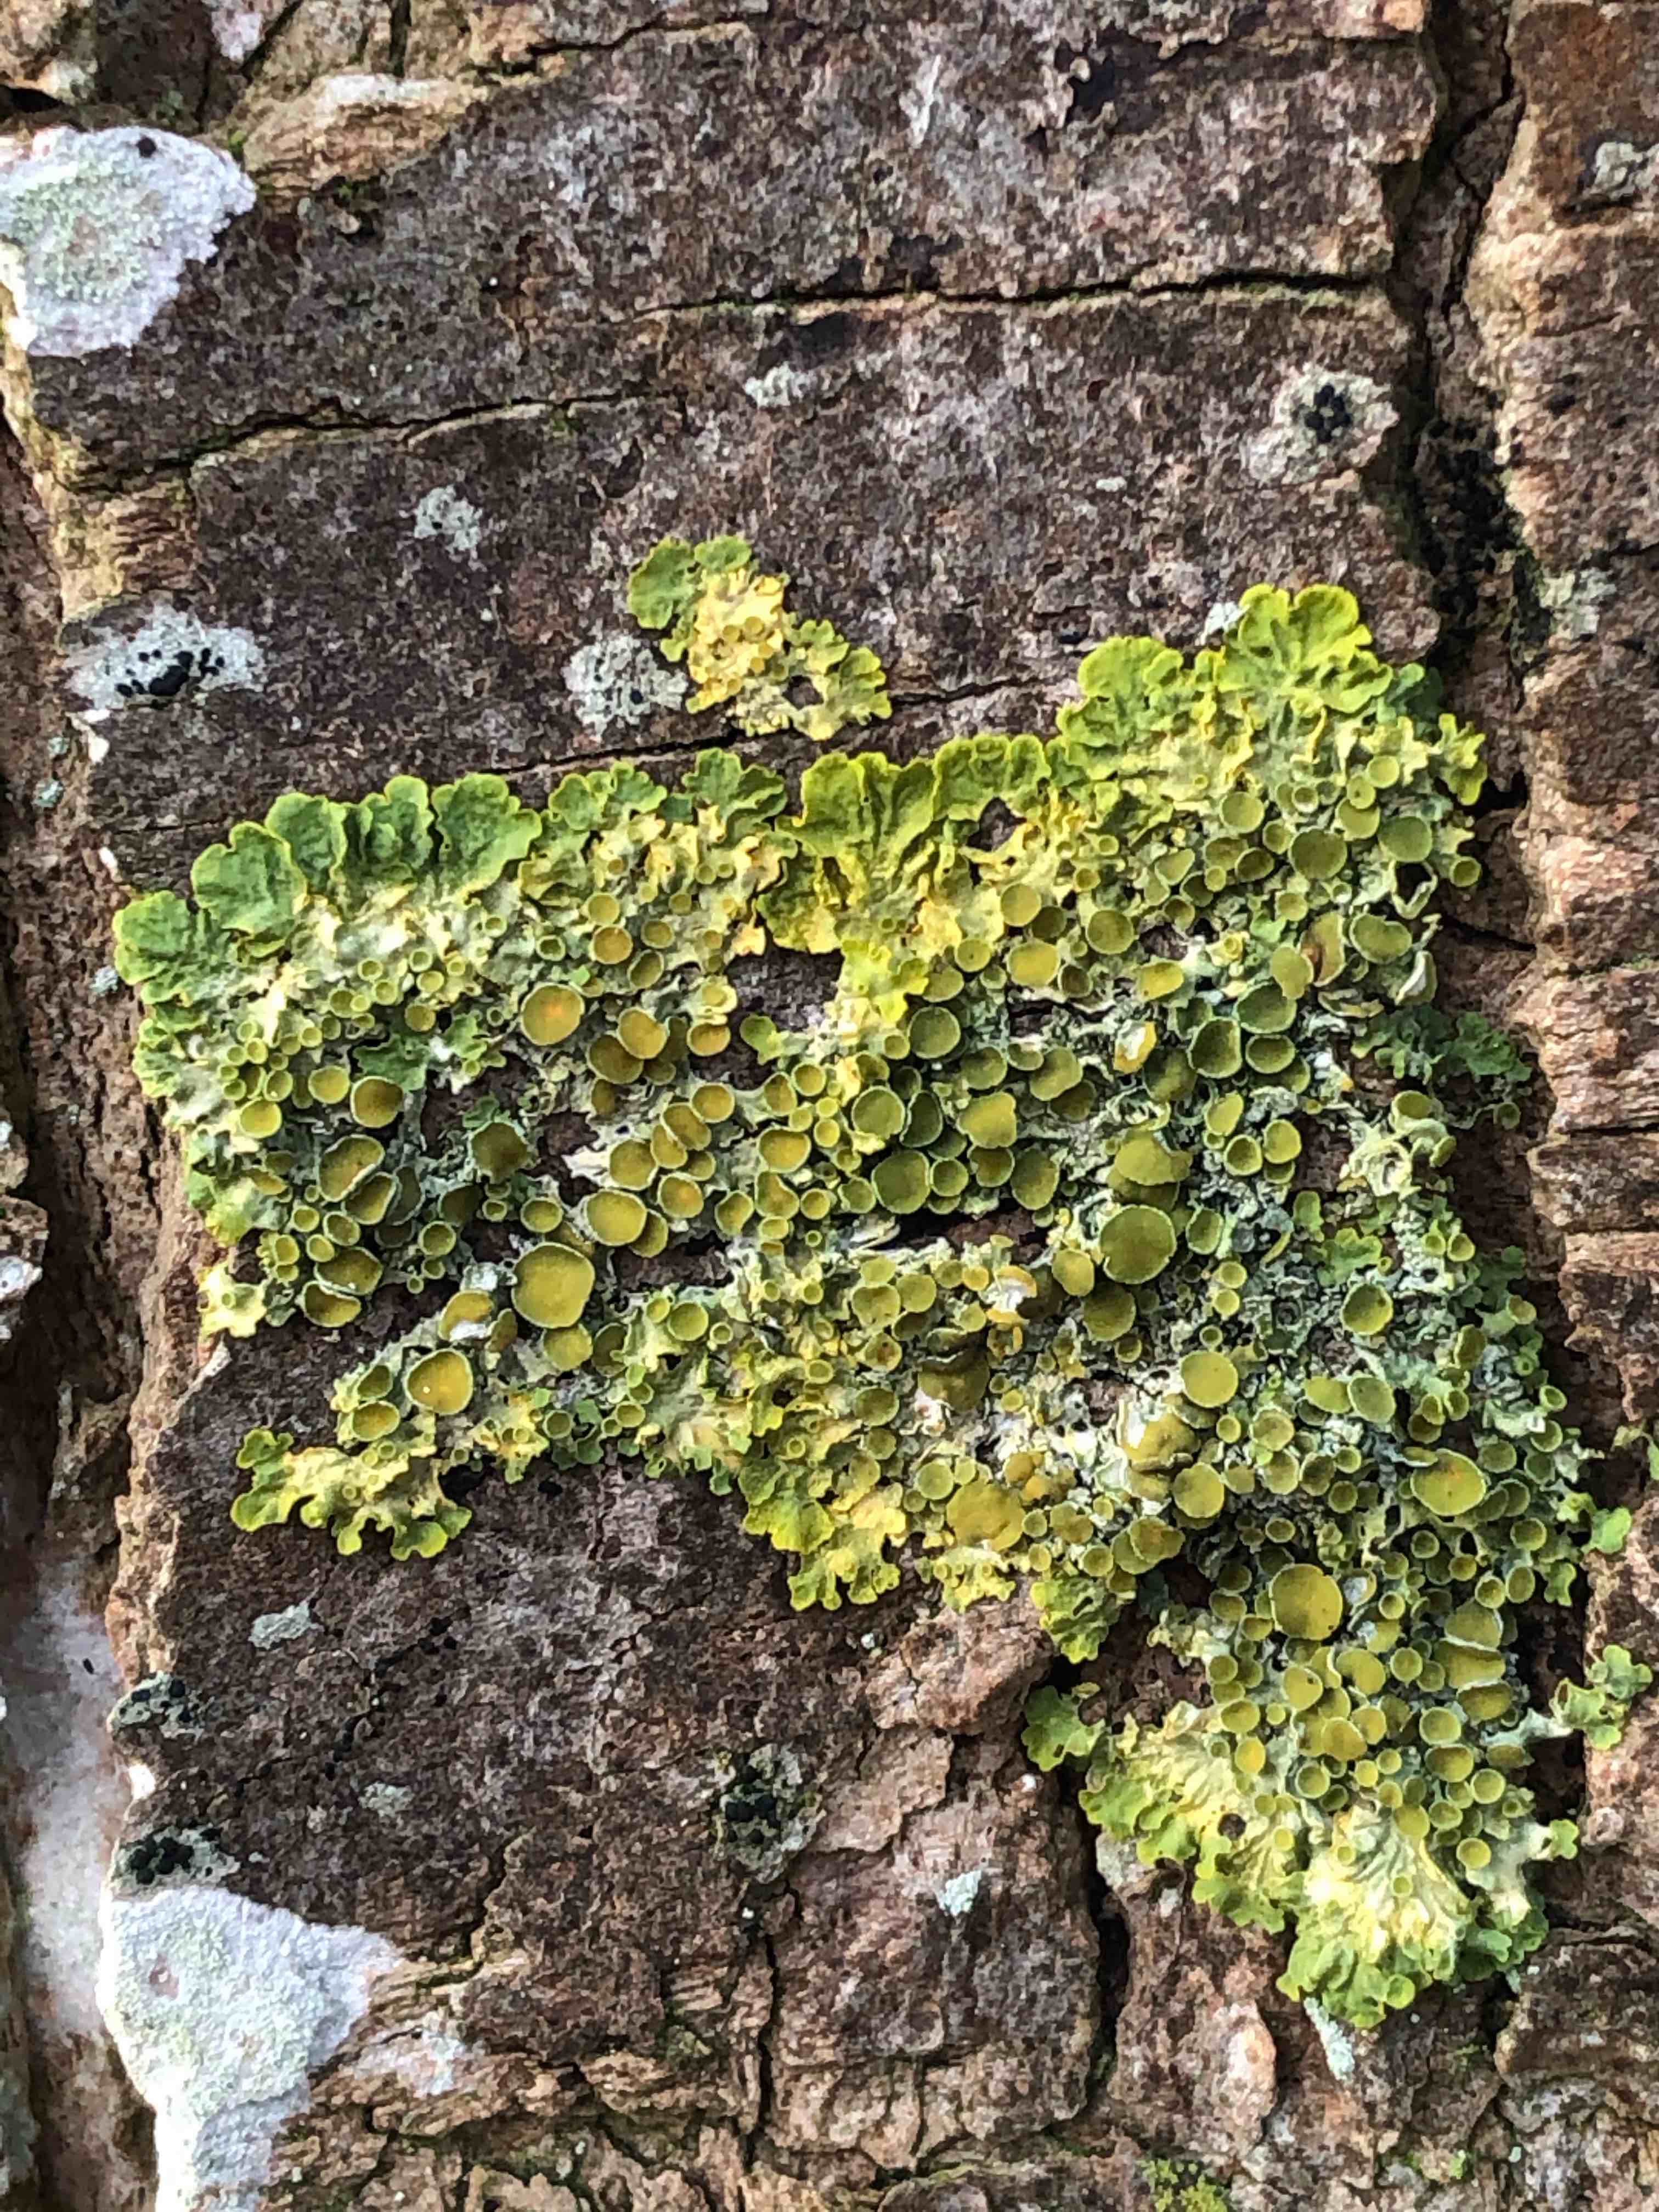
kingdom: Fungi
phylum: Ascomycota
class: Lecanoromycetes
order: Teloschistales
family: Teloschistaceae
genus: Xanthoria
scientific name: Xanthoria parietina
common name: almindelig væggelav
